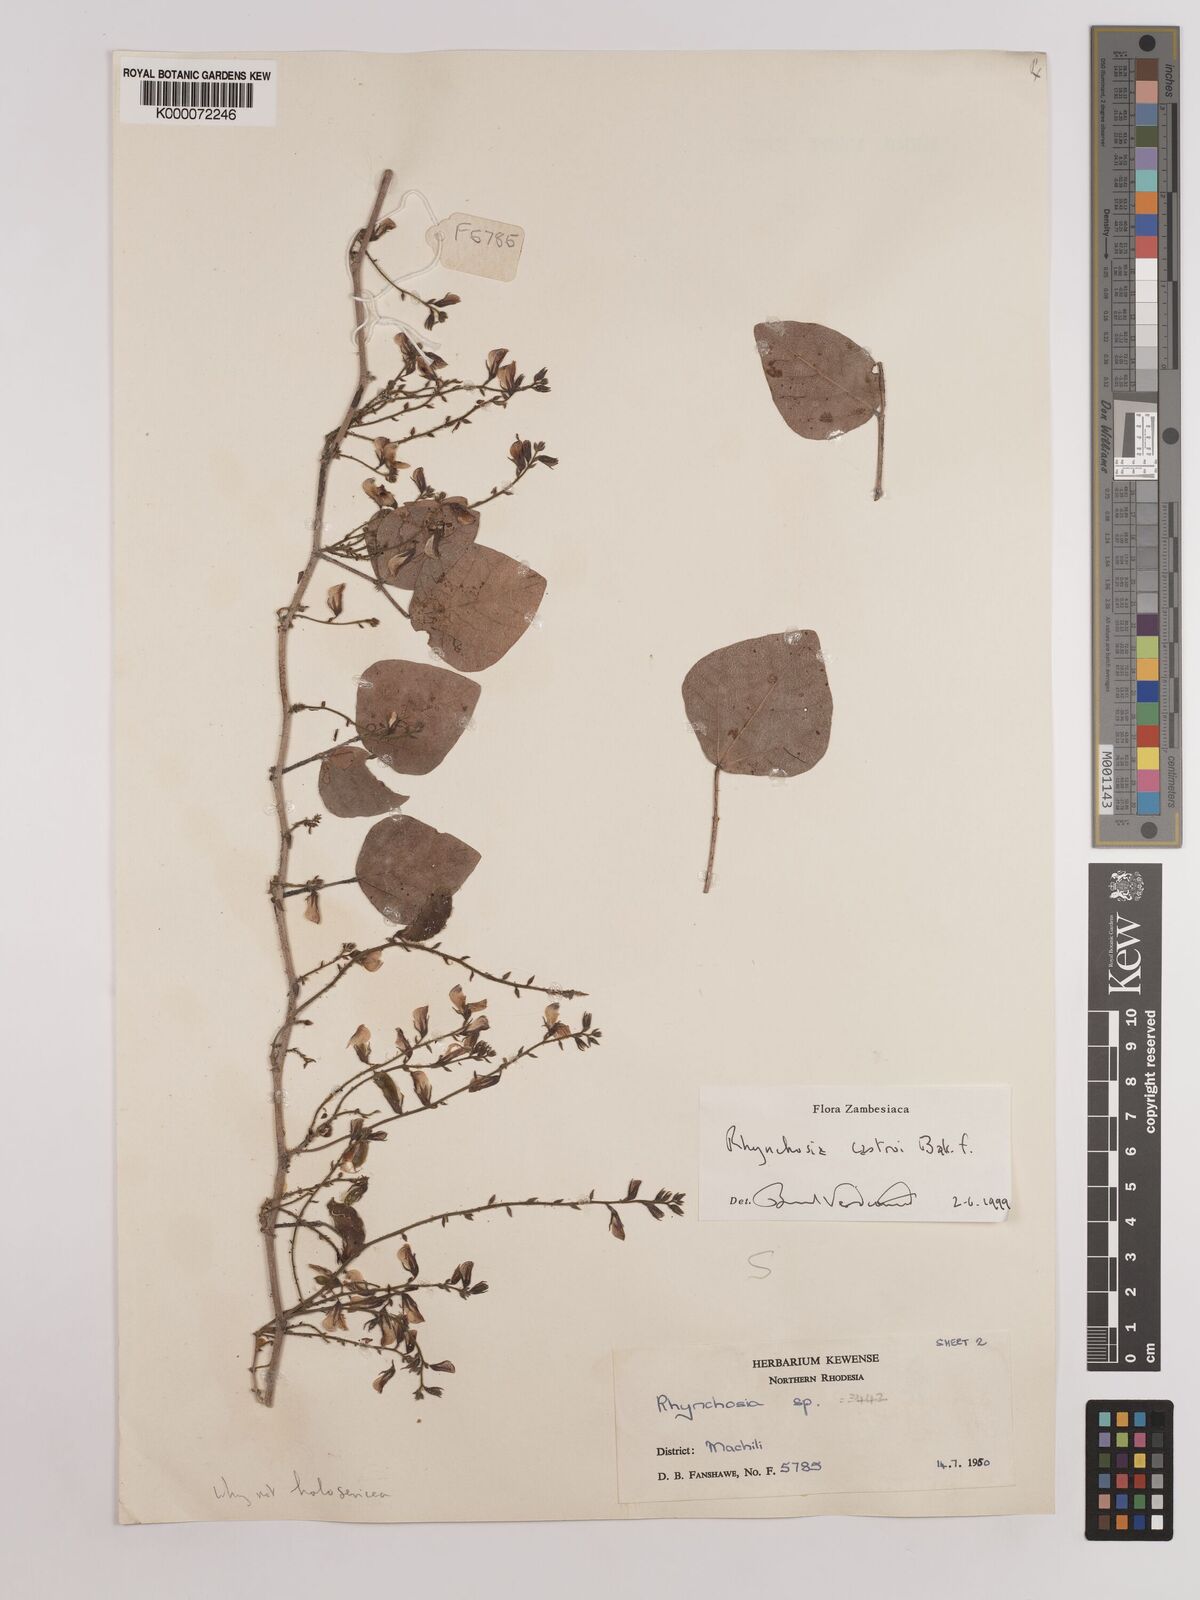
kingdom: Plantae
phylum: Tracheophyta
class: Magnoliopsida
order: Fabales
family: Fabaceae
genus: Rhynchosia
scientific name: Rhynchosia castroi
